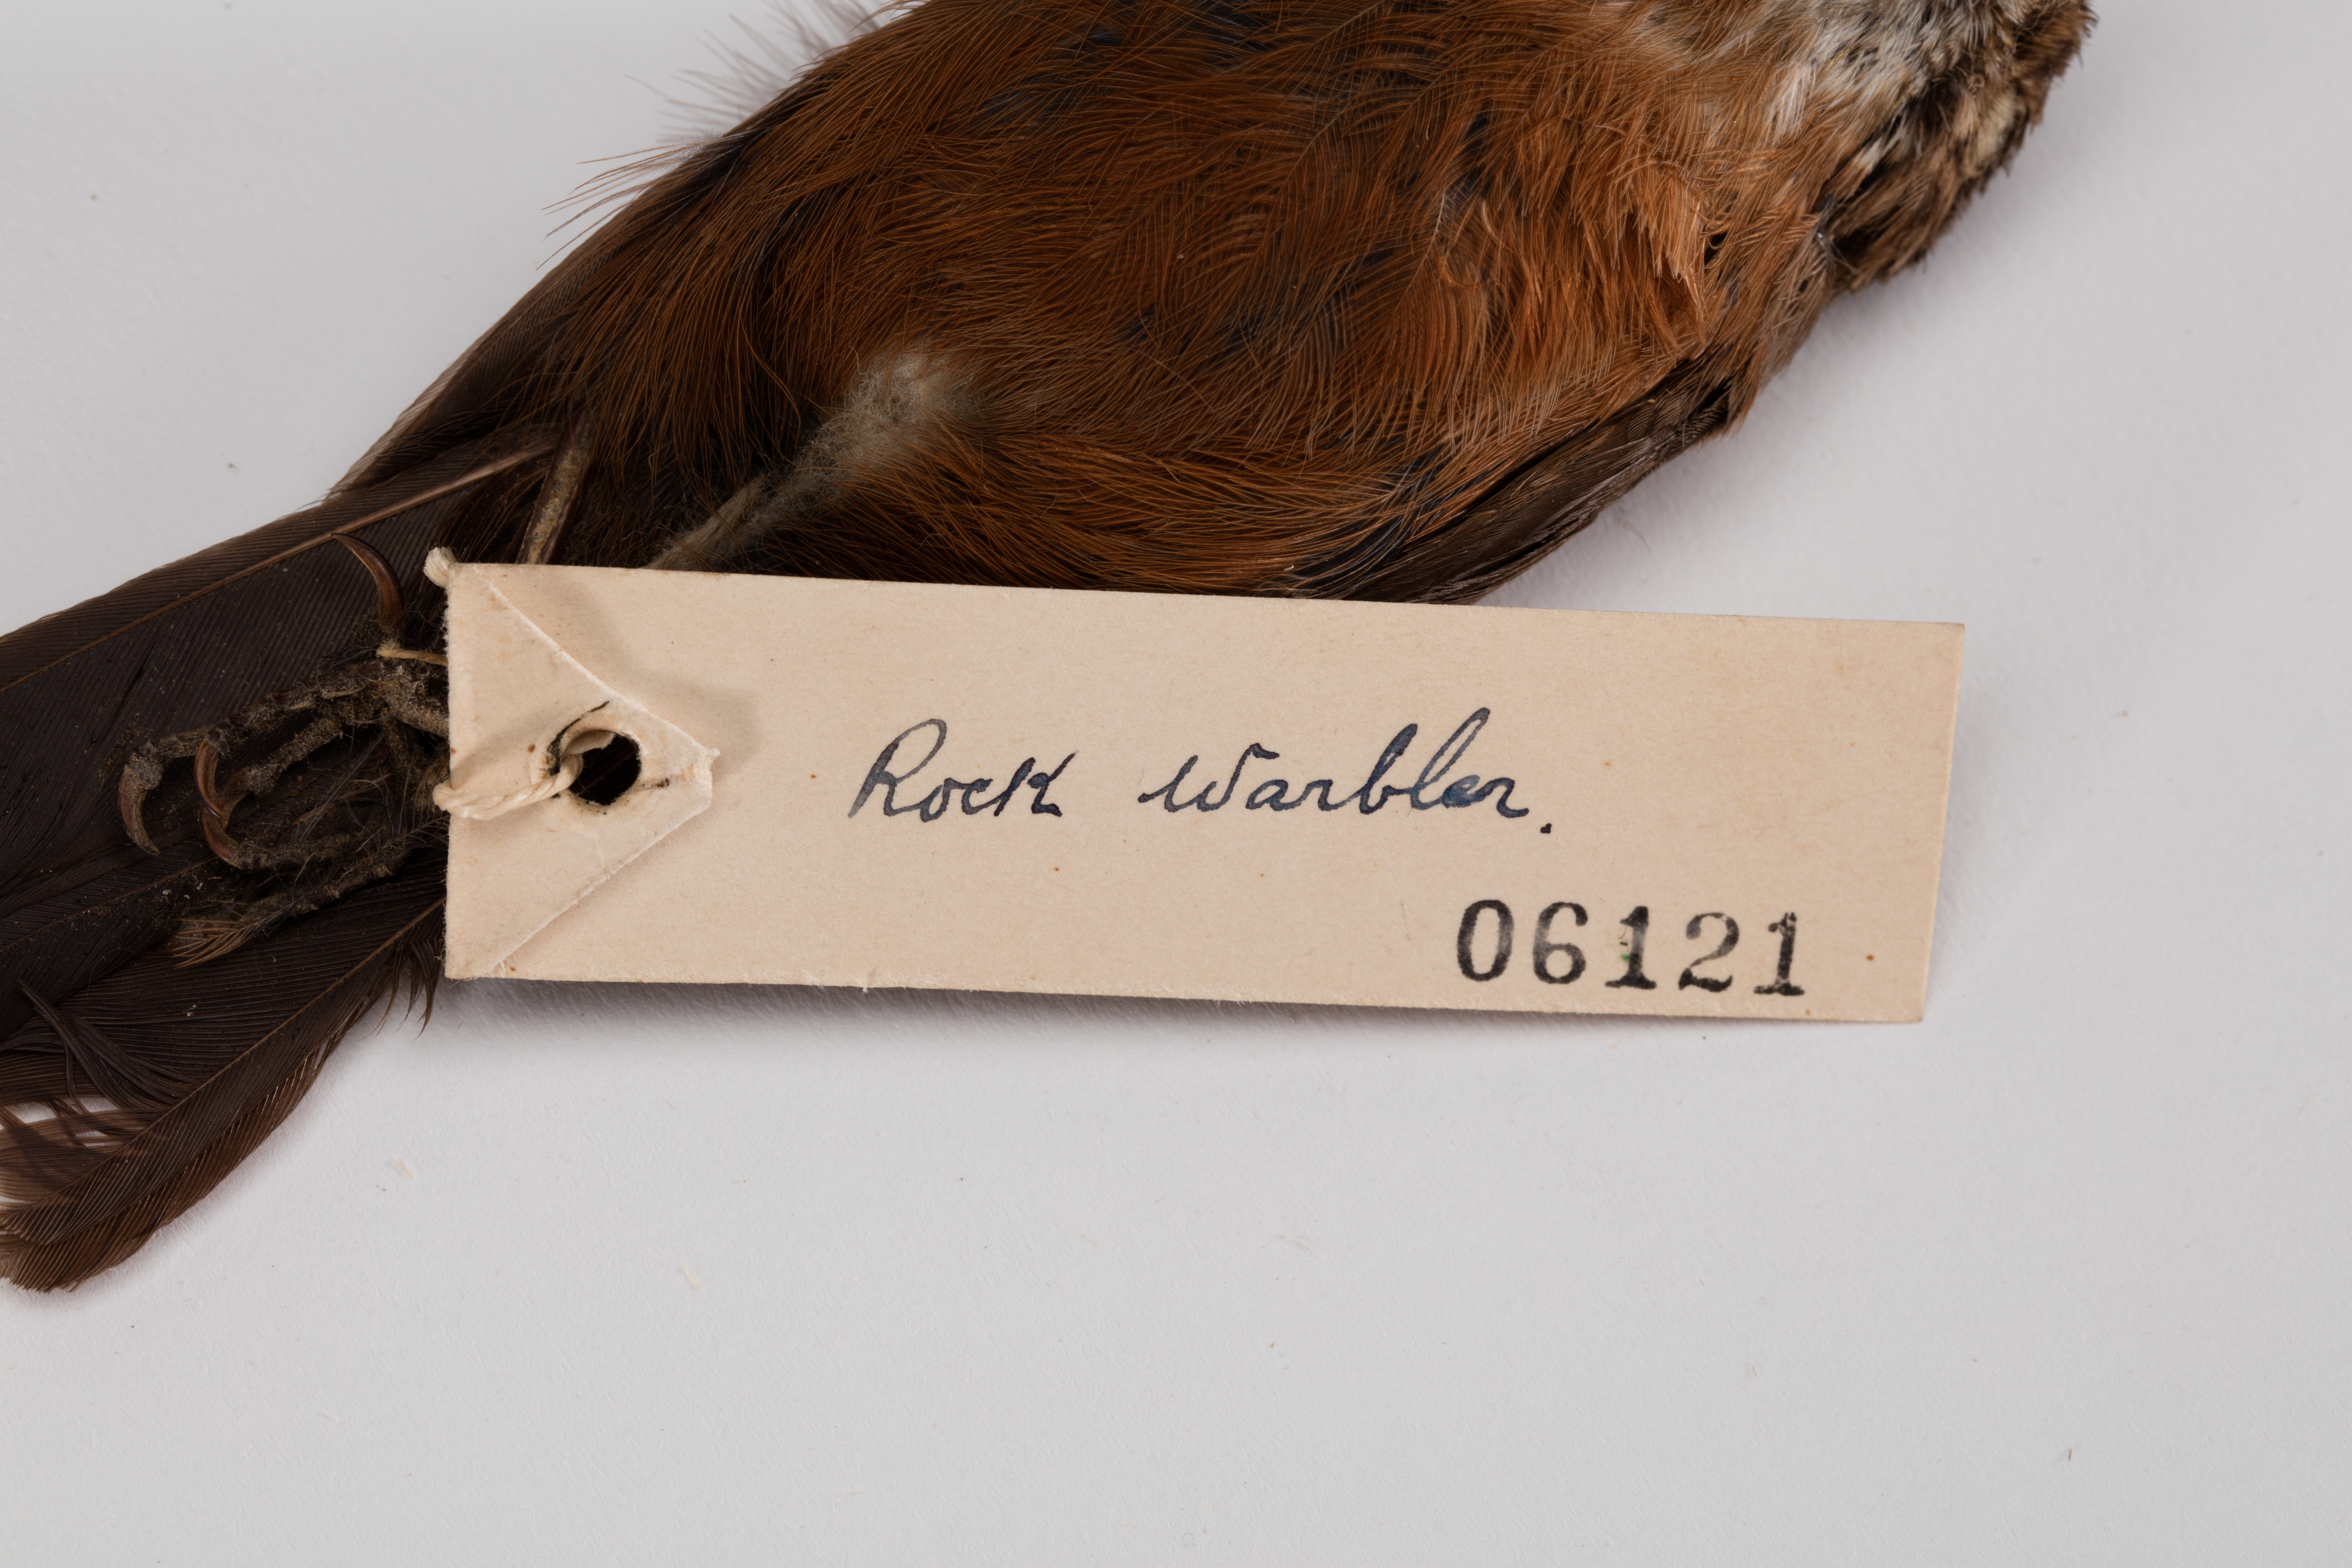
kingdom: Animalia
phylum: Chordata
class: Aves
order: Passeriformes
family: Acanthizidae
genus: Origma
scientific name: Origma solitaria
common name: Rockwarbler
